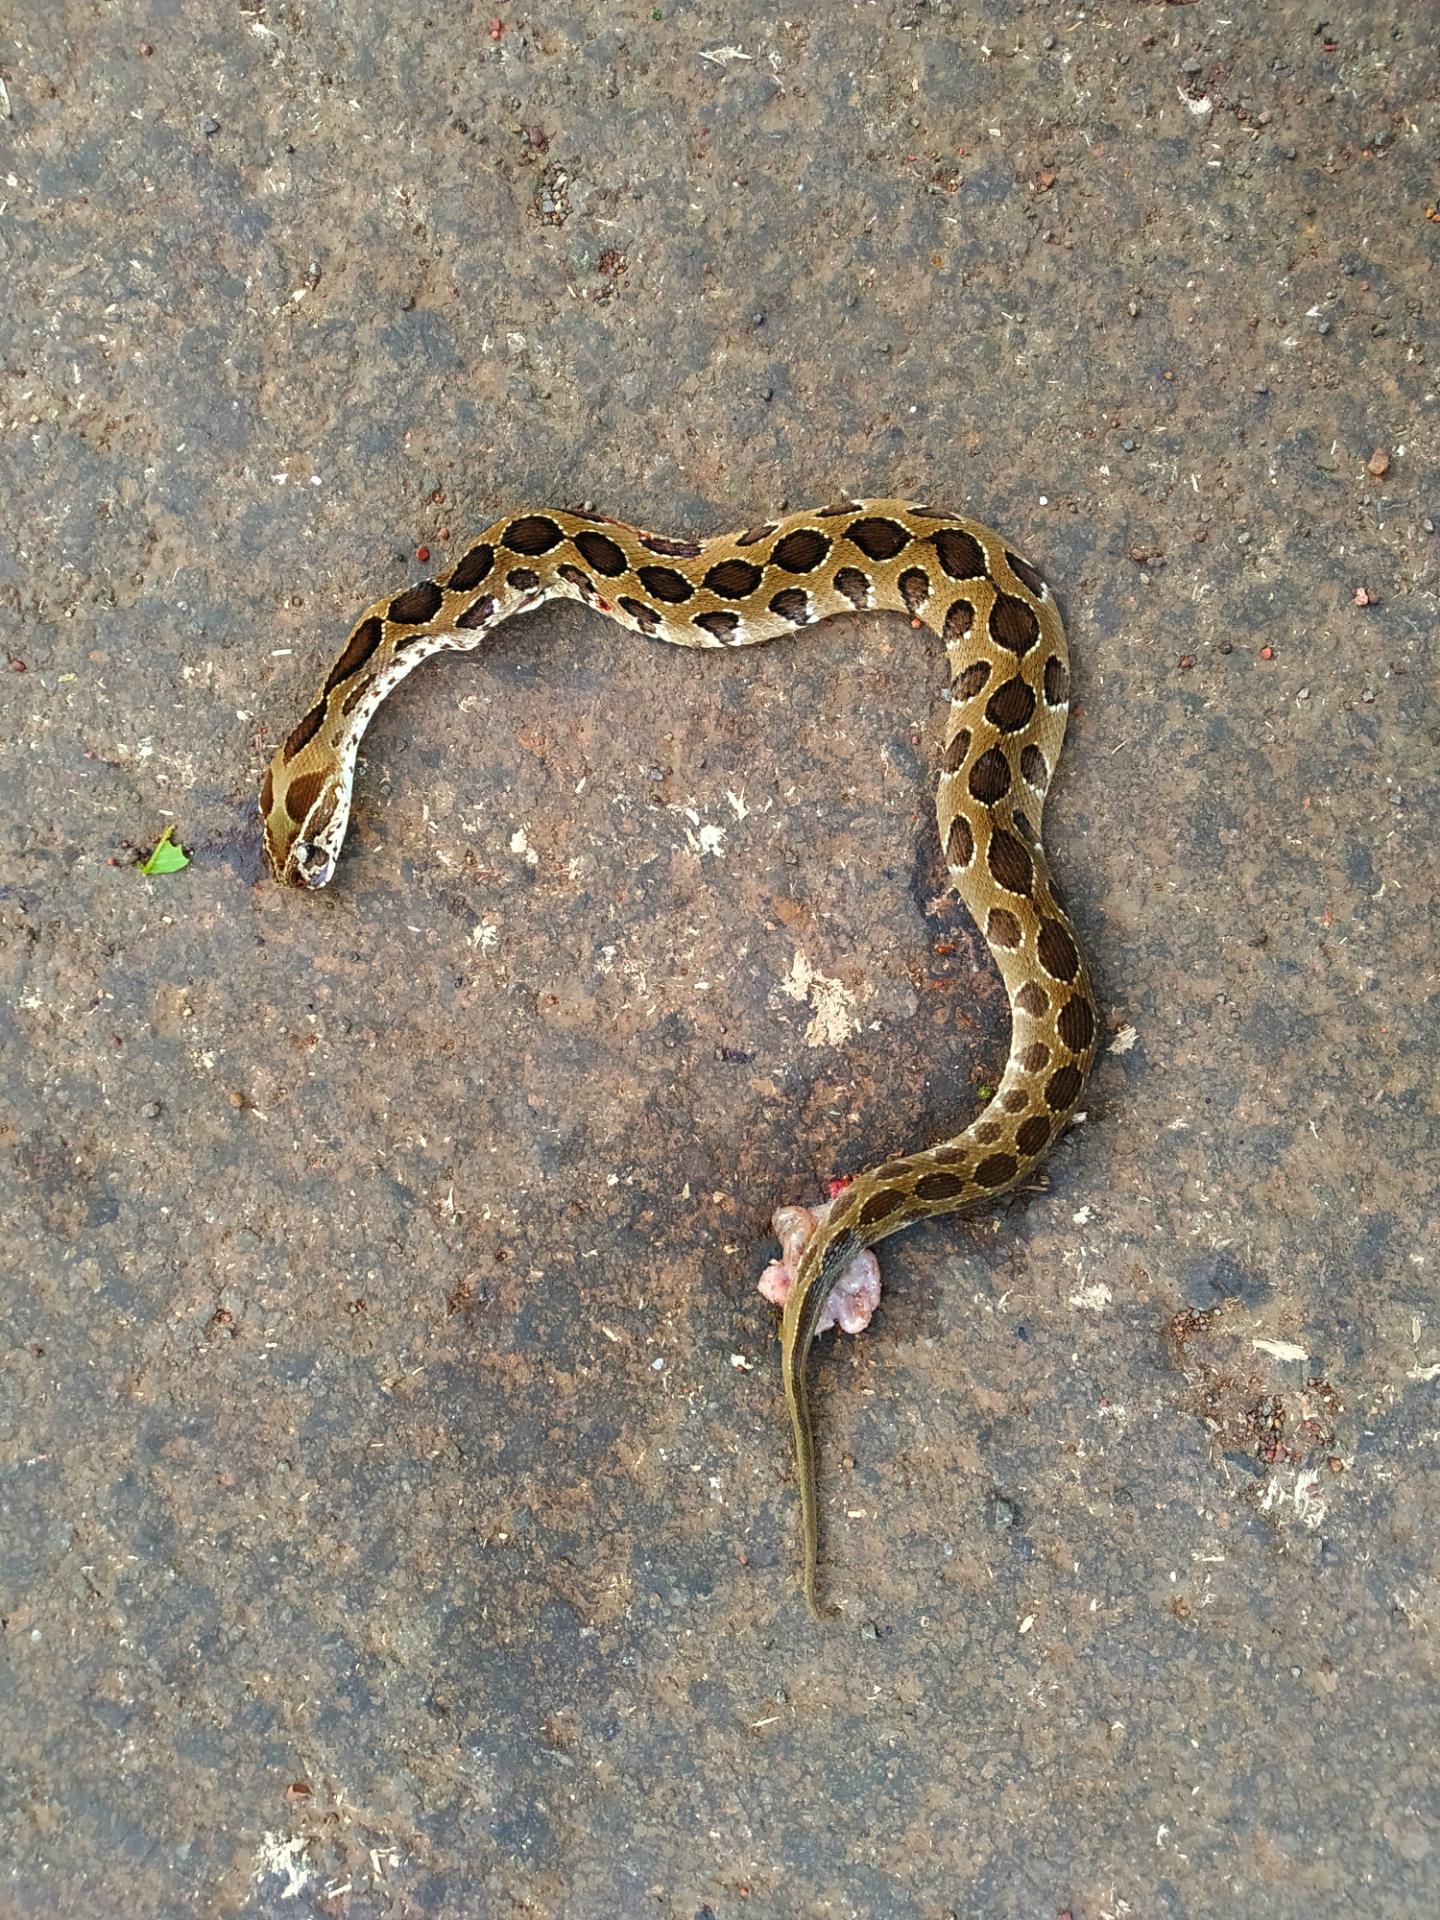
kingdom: Animalia
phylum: Chordata
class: Squamata
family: Viperidae
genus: Daboia
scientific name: Daboia russelii
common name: Western russel’s viper
